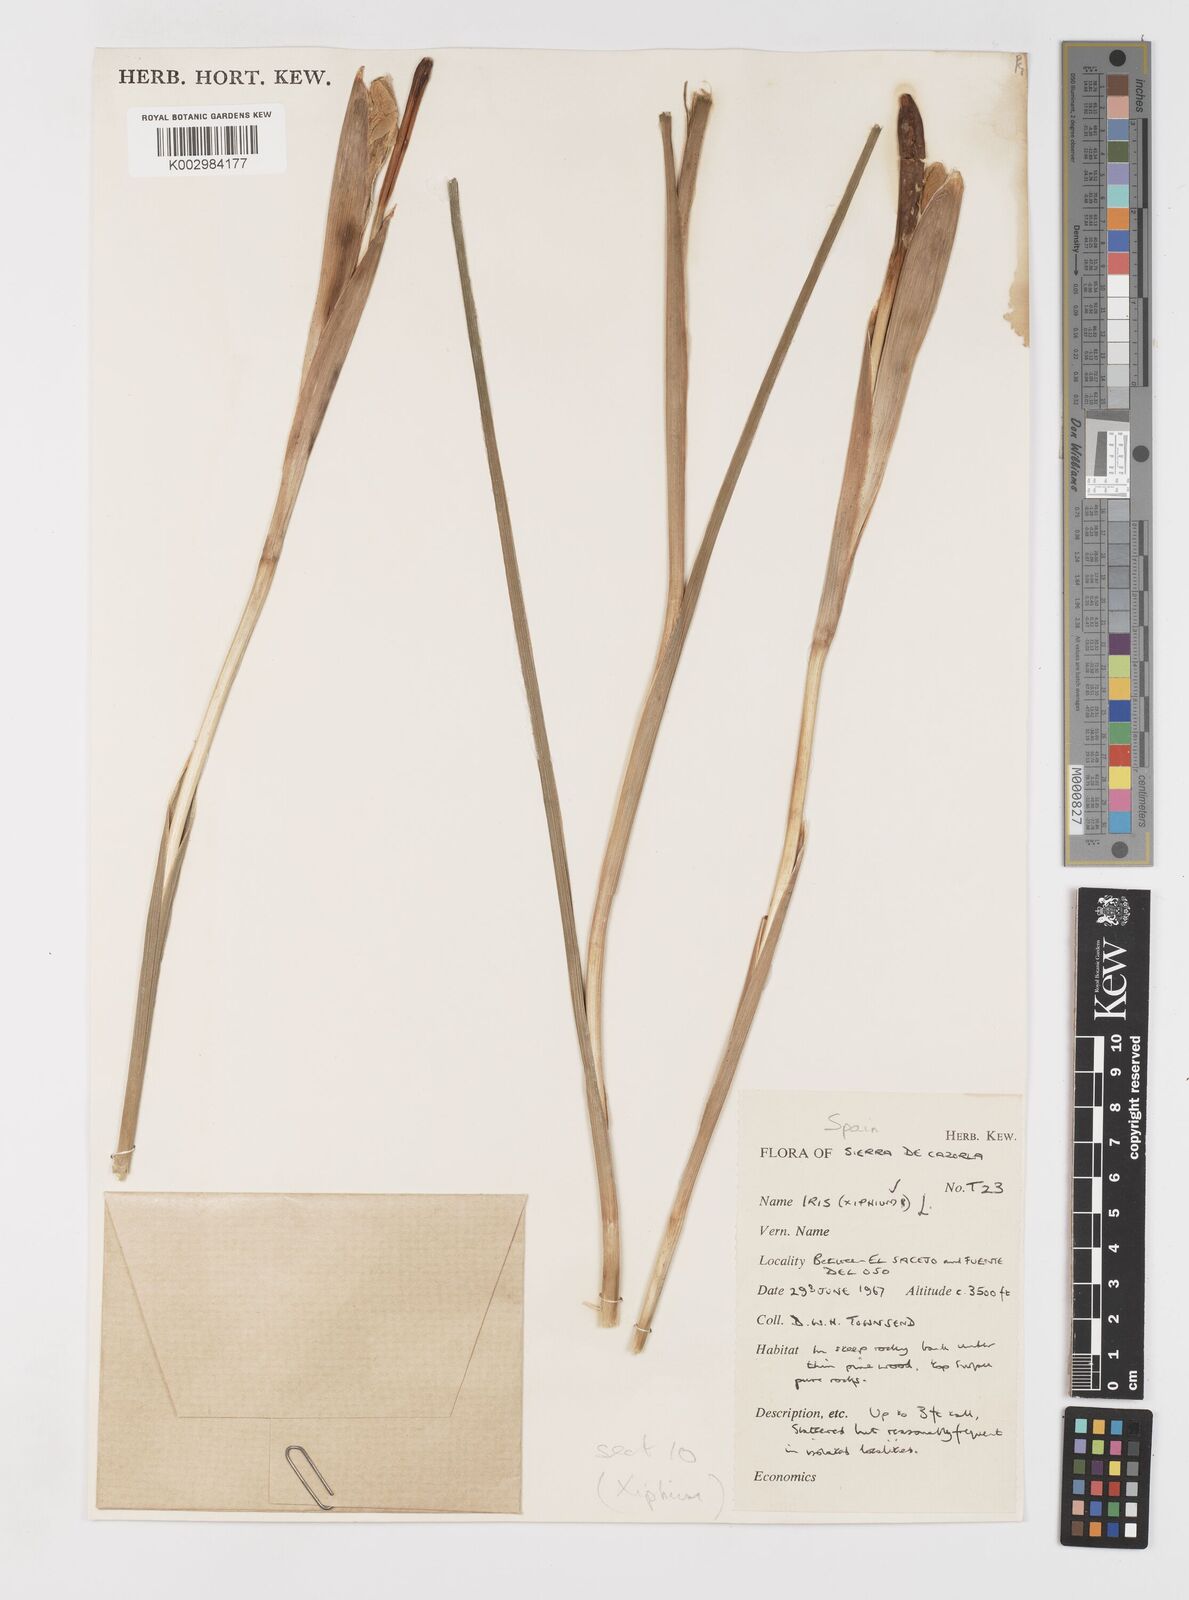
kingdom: Plantae
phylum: Tracheophyta
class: Liliopsida
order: Asparagales
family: Iridaceae
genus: Iris
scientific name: Iris xiphium
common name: Spanish iris
